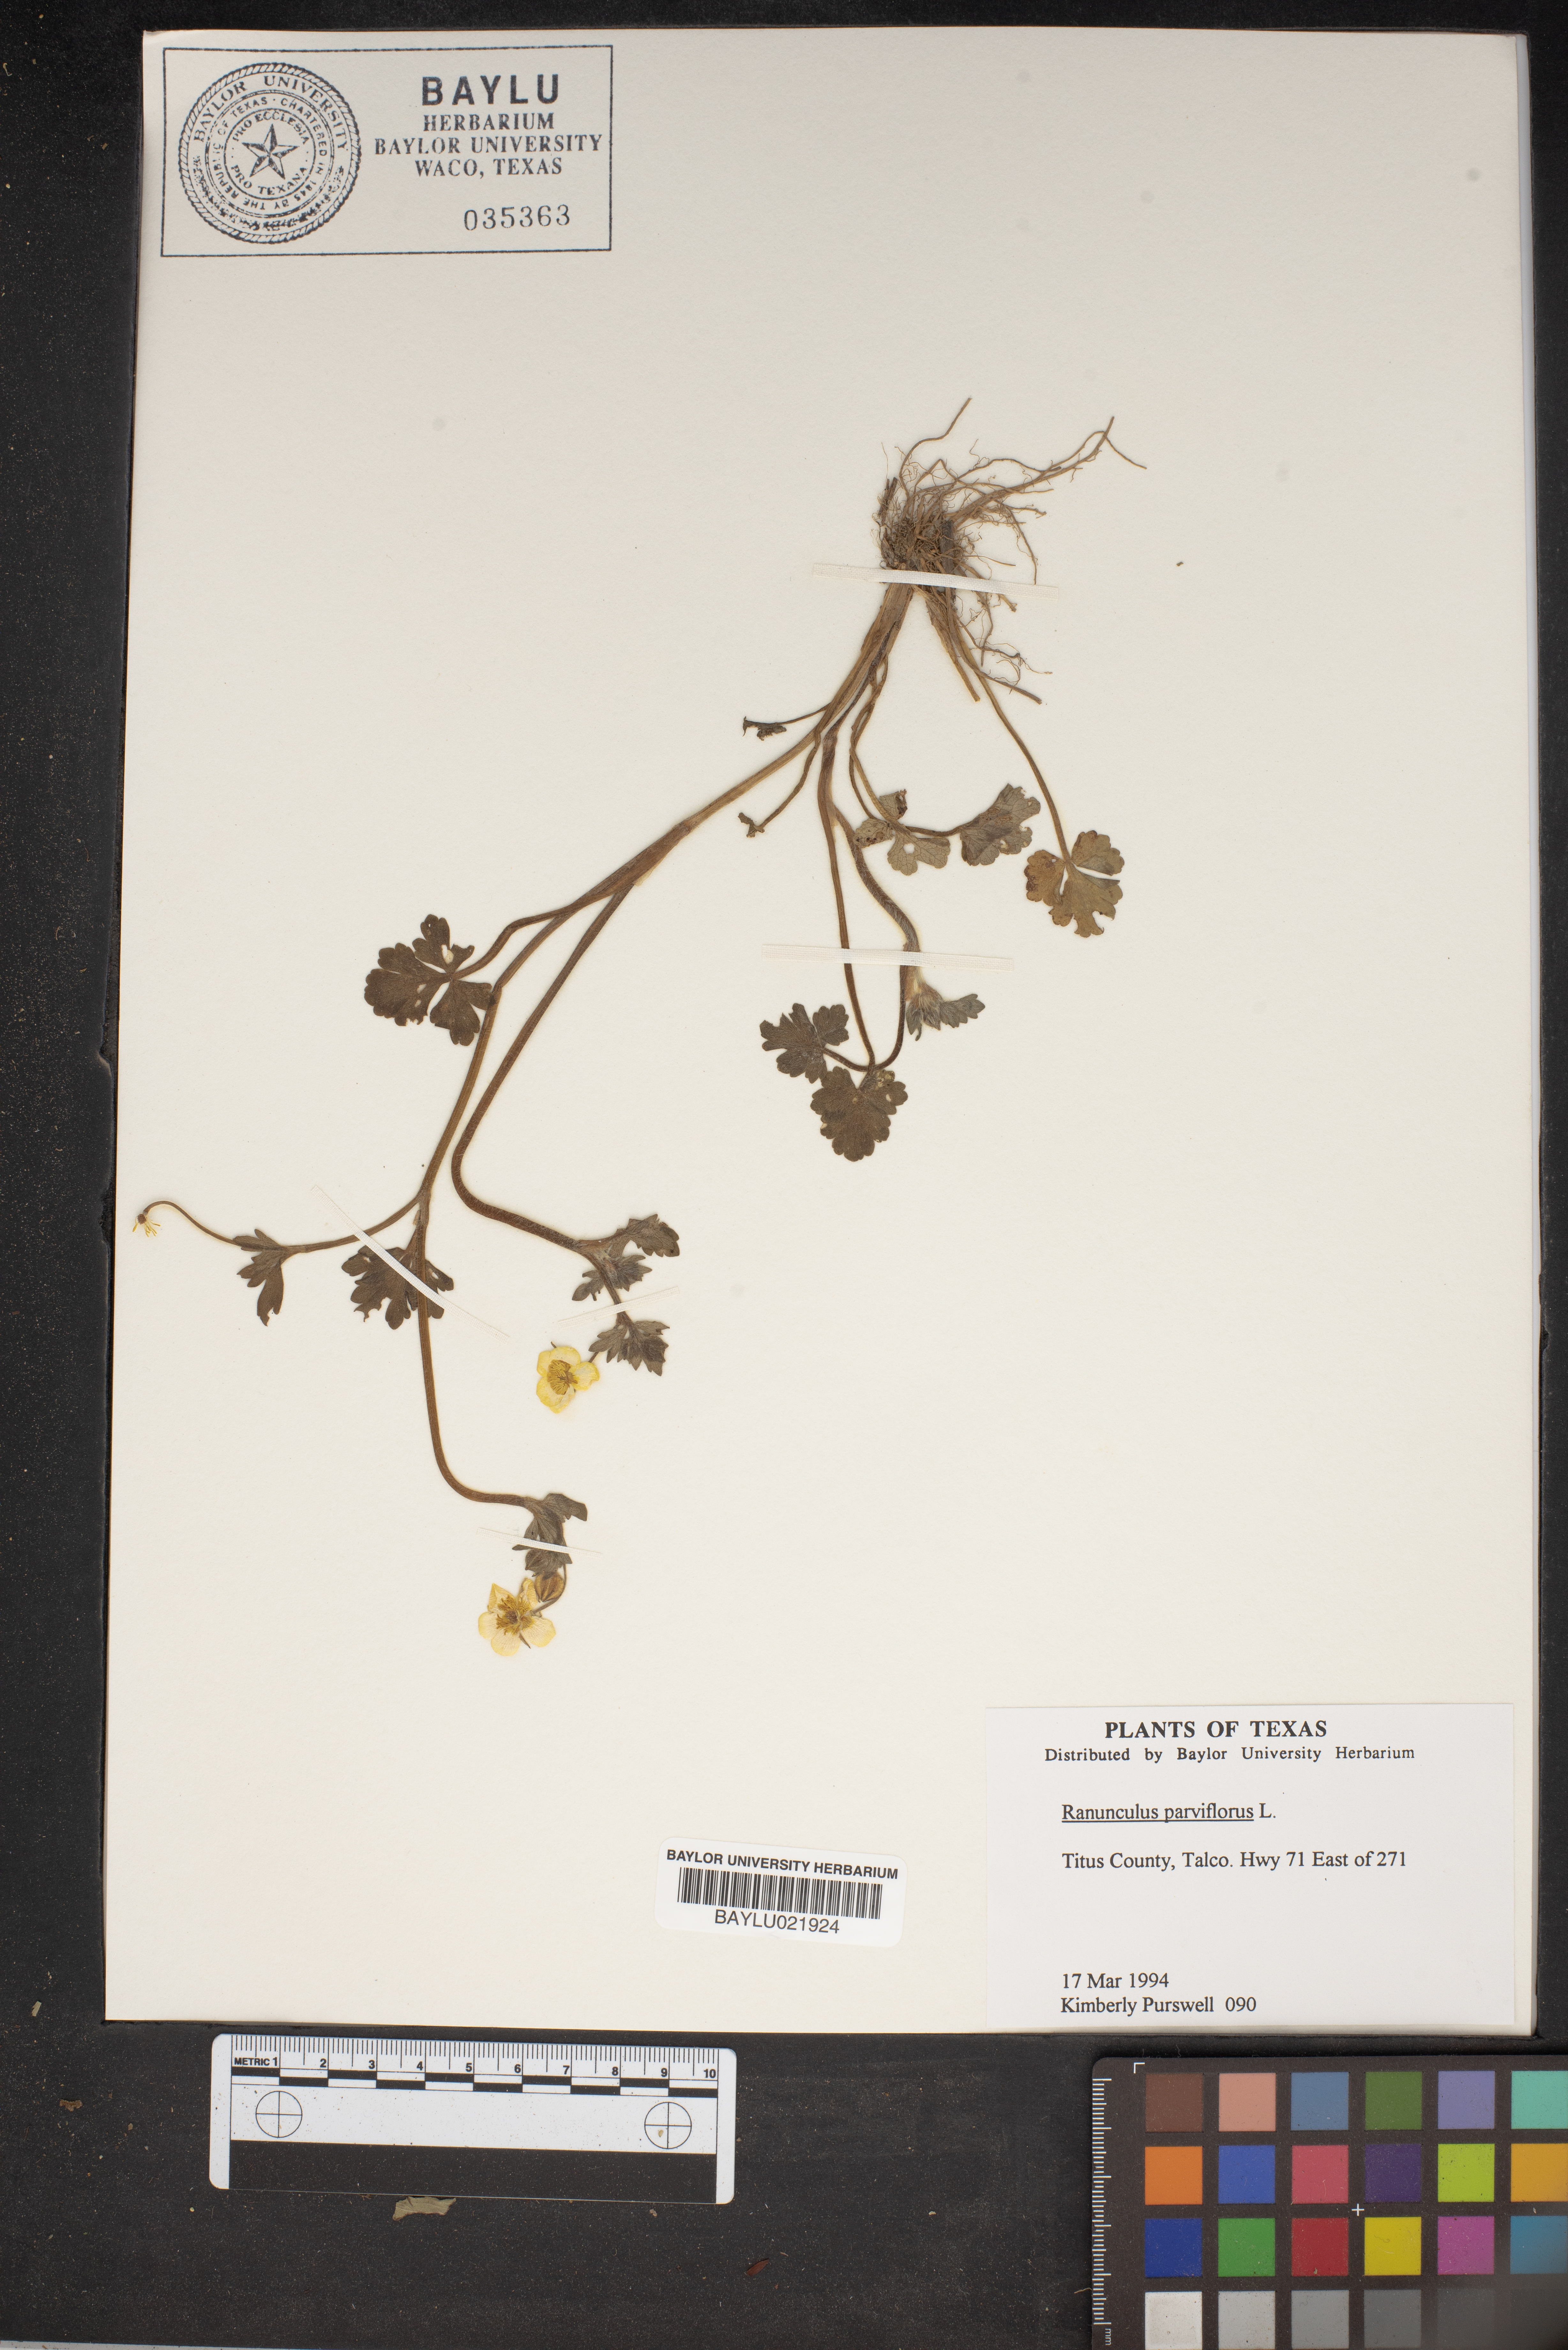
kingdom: Plantae
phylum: Tracheophyta
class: Magnoliopsida
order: Ranunculales
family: Ranunculaceae
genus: Ranunculus
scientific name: Ranunculus parviflorus
